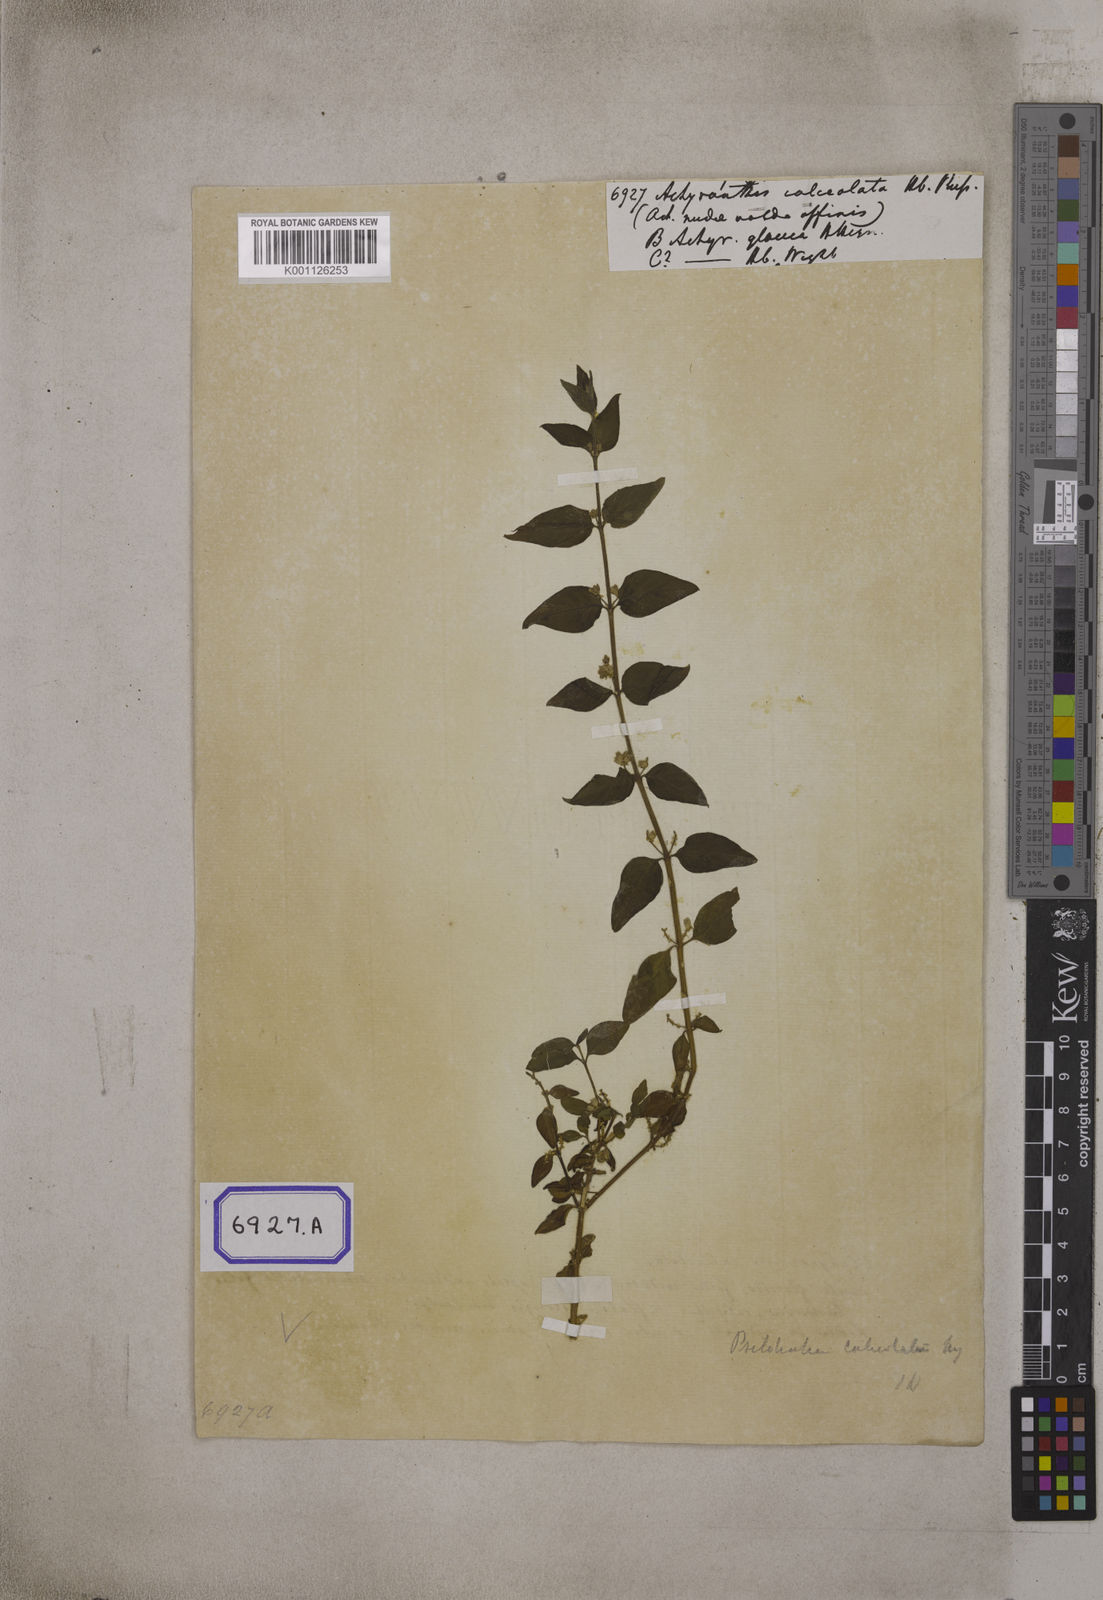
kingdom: Plantae
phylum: Tracheophyta
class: Magnoliopsida
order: Caryophyllales
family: Amaranthaceae
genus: Achyranthes
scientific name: Achyranthes
